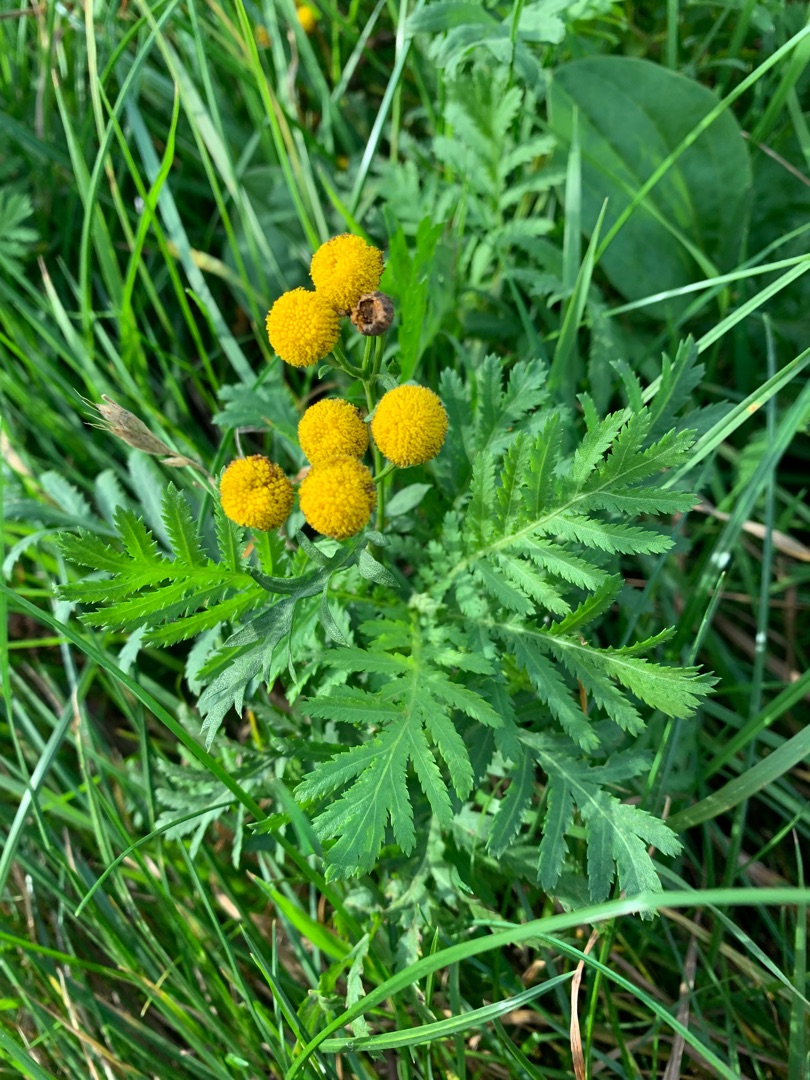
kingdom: Plantae
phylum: Tracheophyta
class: Magnoliopsida
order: Asterales
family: Asteraceae
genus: Tanacetum
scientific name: Tanacetum vulgare
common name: Rejnfan
